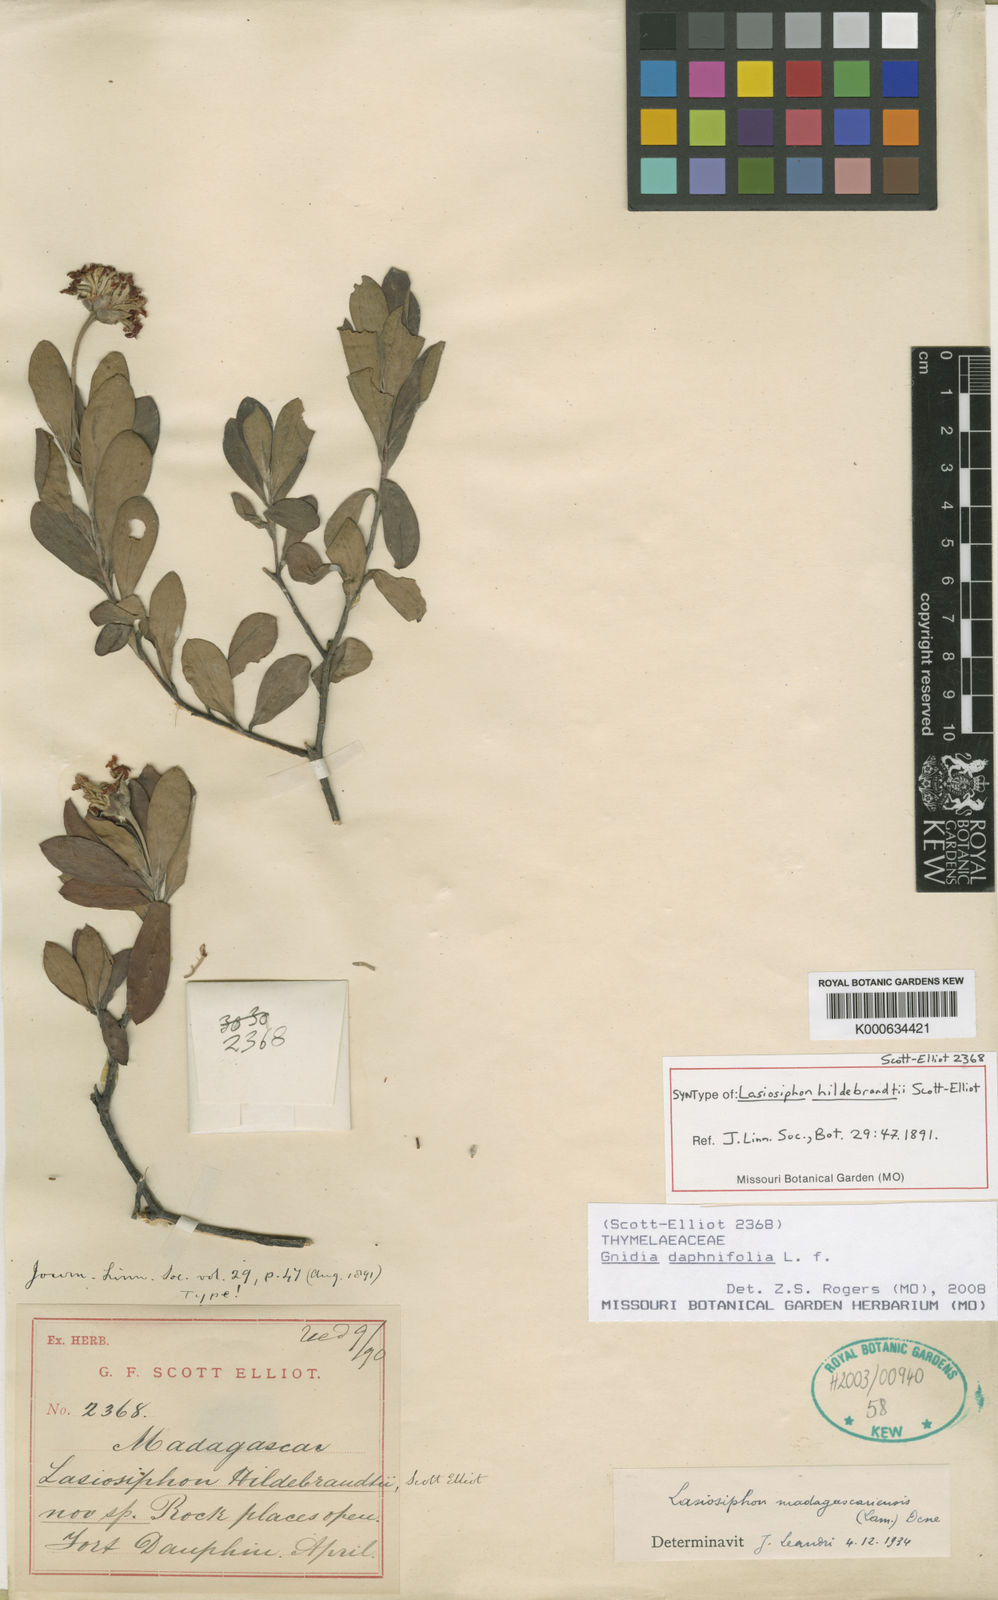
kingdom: Plantae
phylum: Tracheophyta
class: Magnoliopsida
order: Malvales
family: Thymelaeaceae
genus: Gnidia
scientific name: Gnidia daphnifolia
